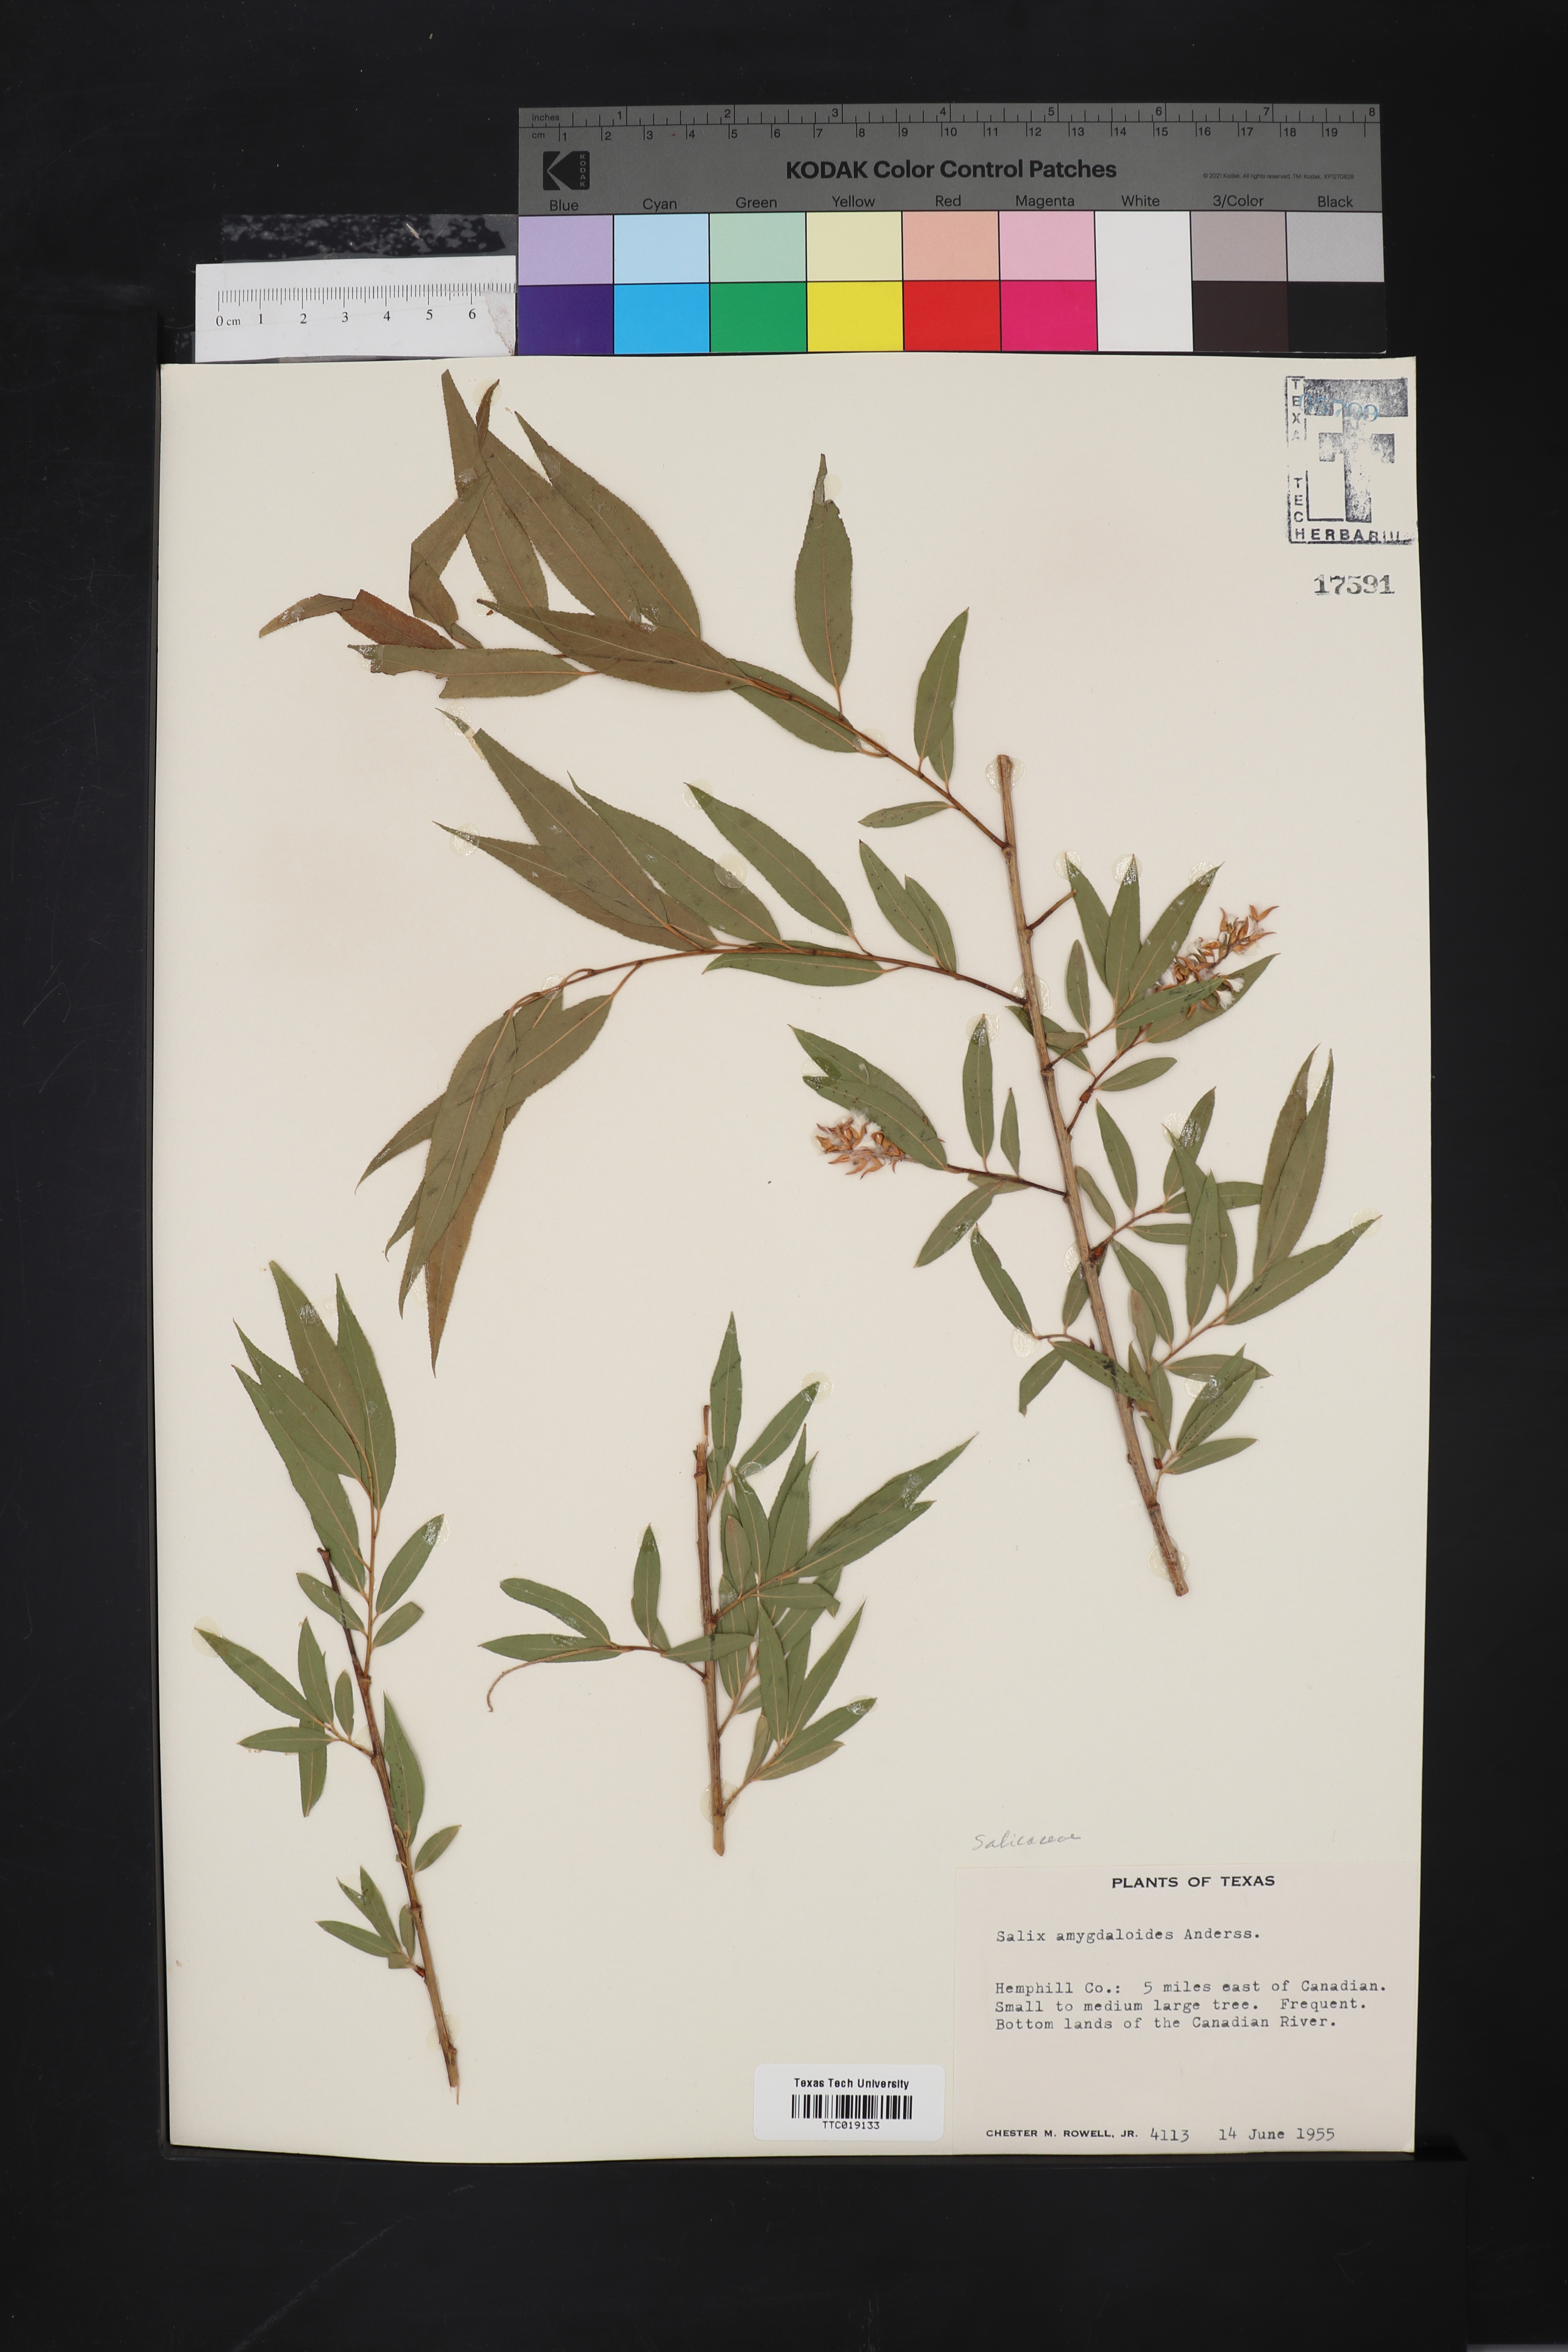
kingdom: Plantae
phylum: Tracheophyta
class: Magnoliopsida
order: Malpighiales
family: Salicaceae
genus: Salix
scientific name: Salix amygdaloides
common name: Peach leaf willow
